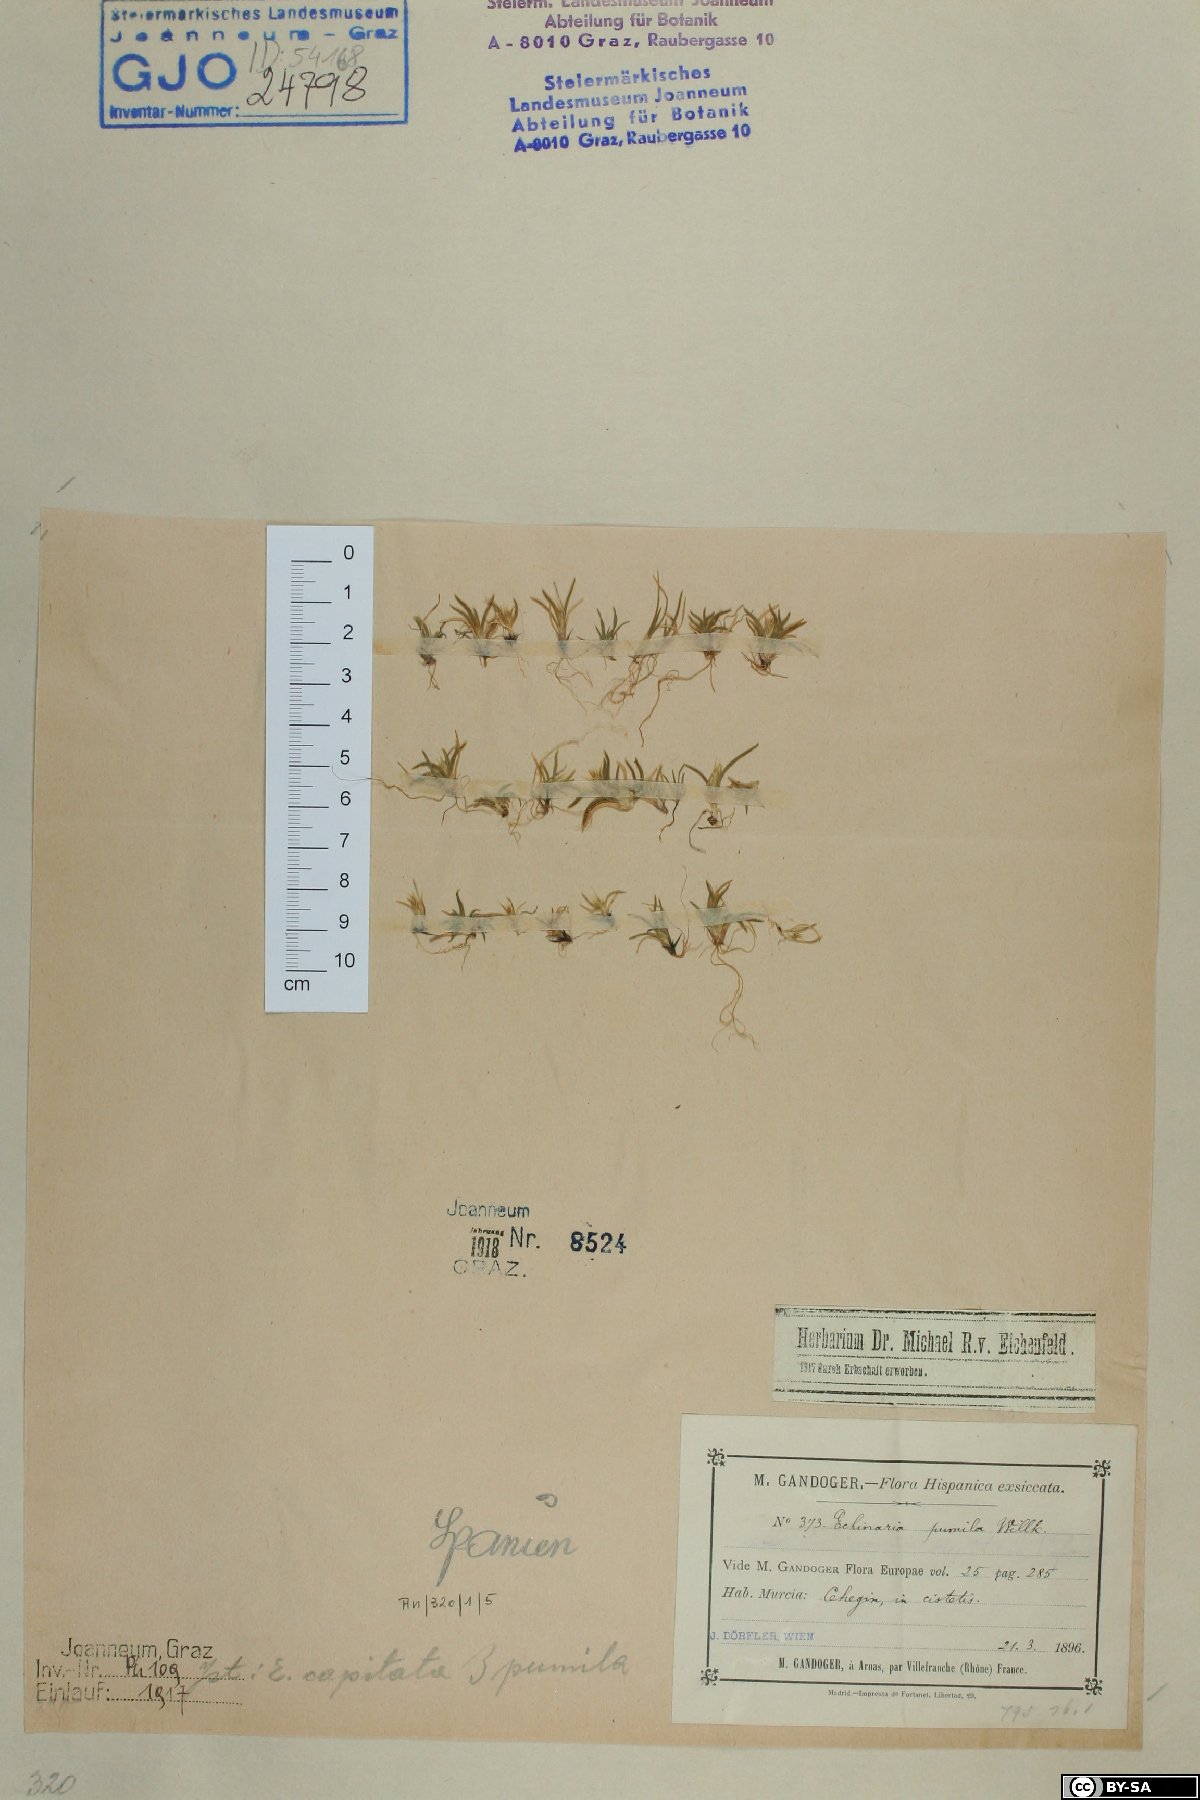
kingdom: Plantae
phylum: Tracheophyta
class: Liliopsida
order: Poales
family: Poaceae
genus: Echinaria
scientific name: Echinaria capitata
